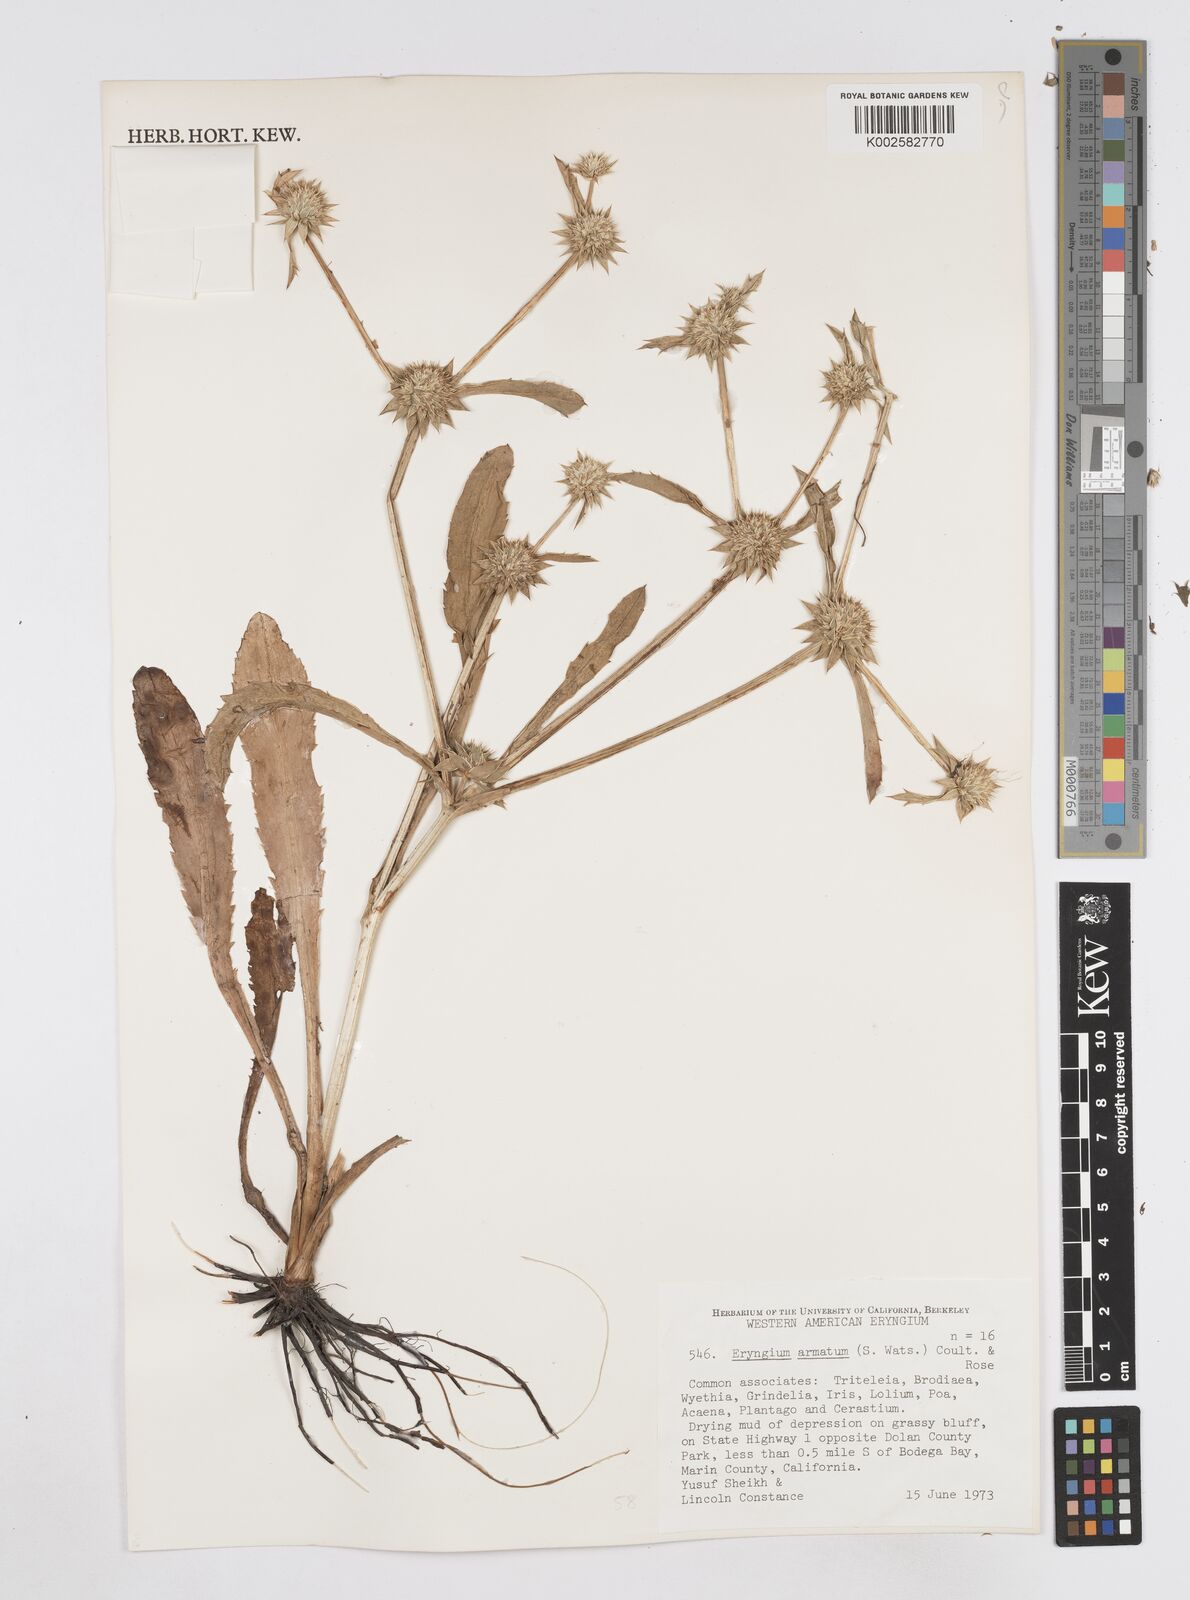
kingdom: Plantae
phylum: Tracheophyta
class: Magnoliopsida
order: Apiales
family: Apiaceae
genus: Eryngium
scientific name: Eryngium armatum
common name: Coyote thistle
